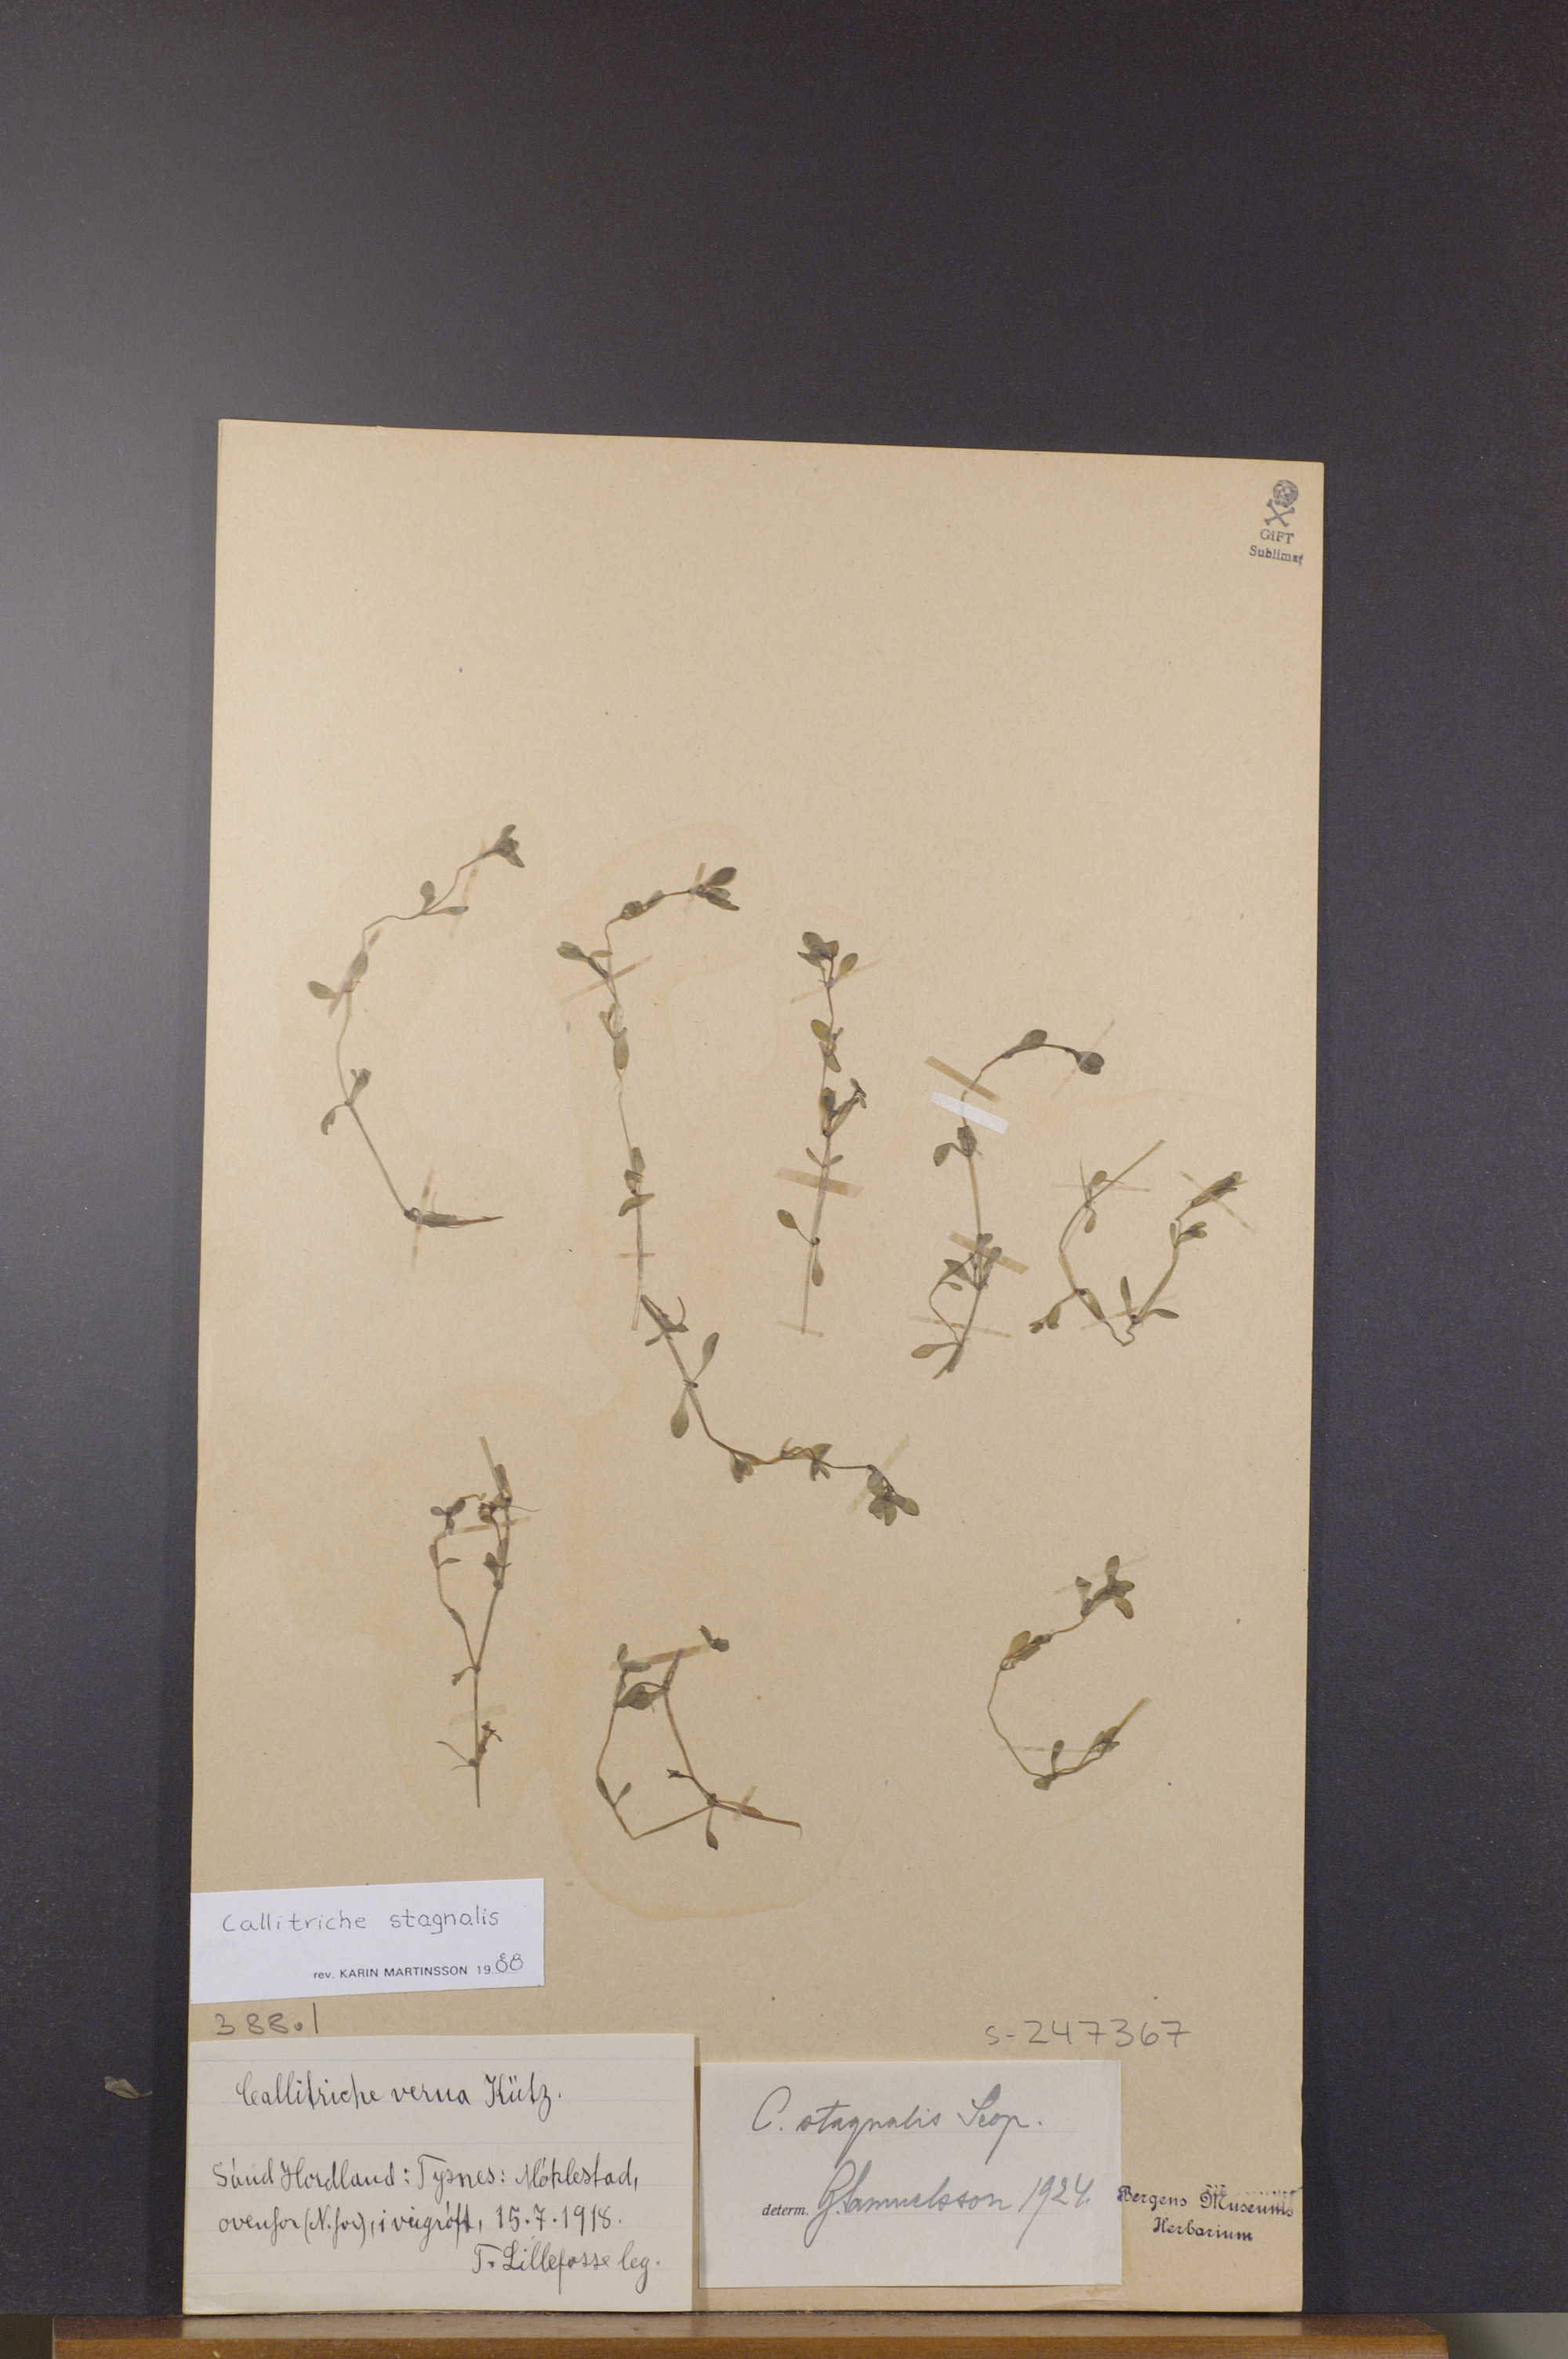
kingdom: Plantae
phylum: Tracheophyta
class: Magnoliopsida
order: Lamiales
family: Plantaginaceae
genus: Callitriche
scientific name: Callitriche stagnalis
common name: Common water-starwort
